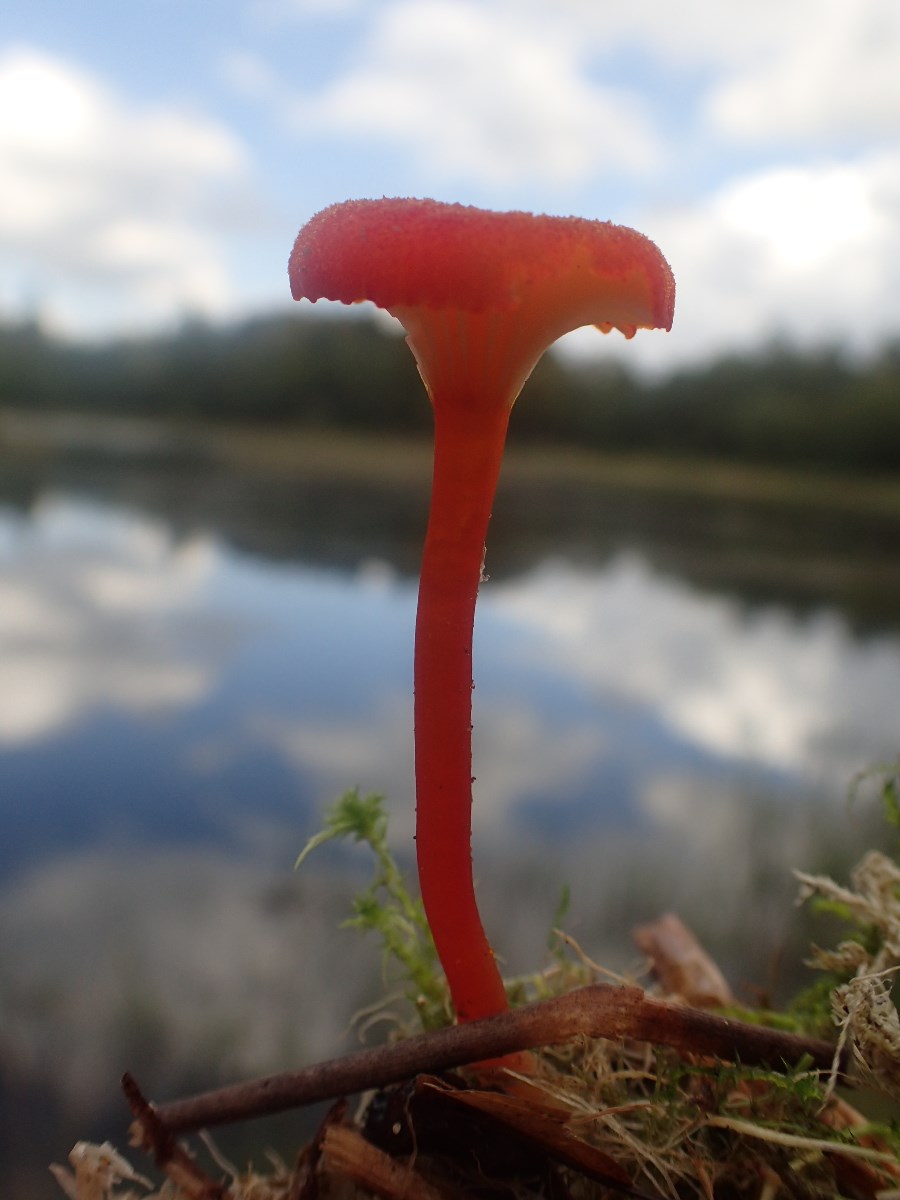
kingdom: Fungi
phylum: Basidiomycota
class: Agaricomycetes
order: Agaricales
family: Hygrophoraceae
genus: Hygrocybe
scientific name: Hygrocybe cantharellus
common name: kantarel-vokshat
